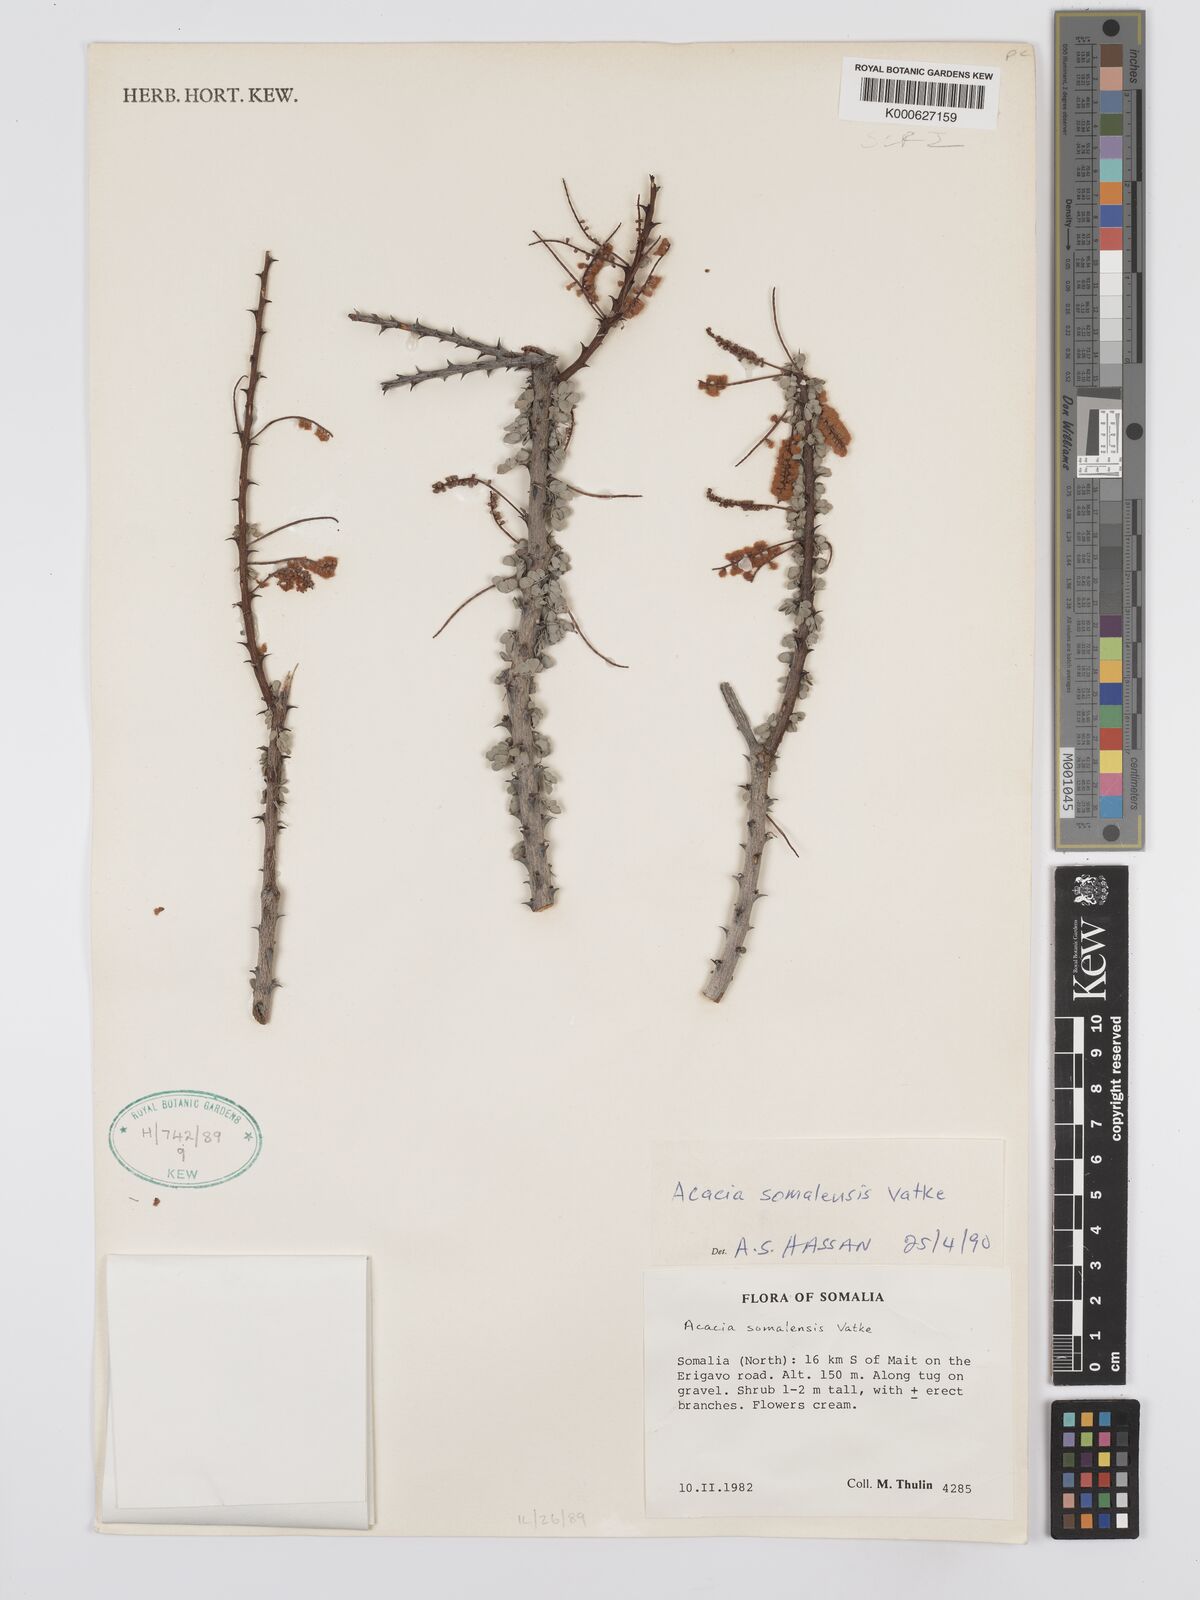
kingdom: Plantae
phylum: Tracheophyta
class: Magnoliopsida
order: Fabales
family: Fabaceae
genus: Senegalia
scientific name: Senegalia somalensis
